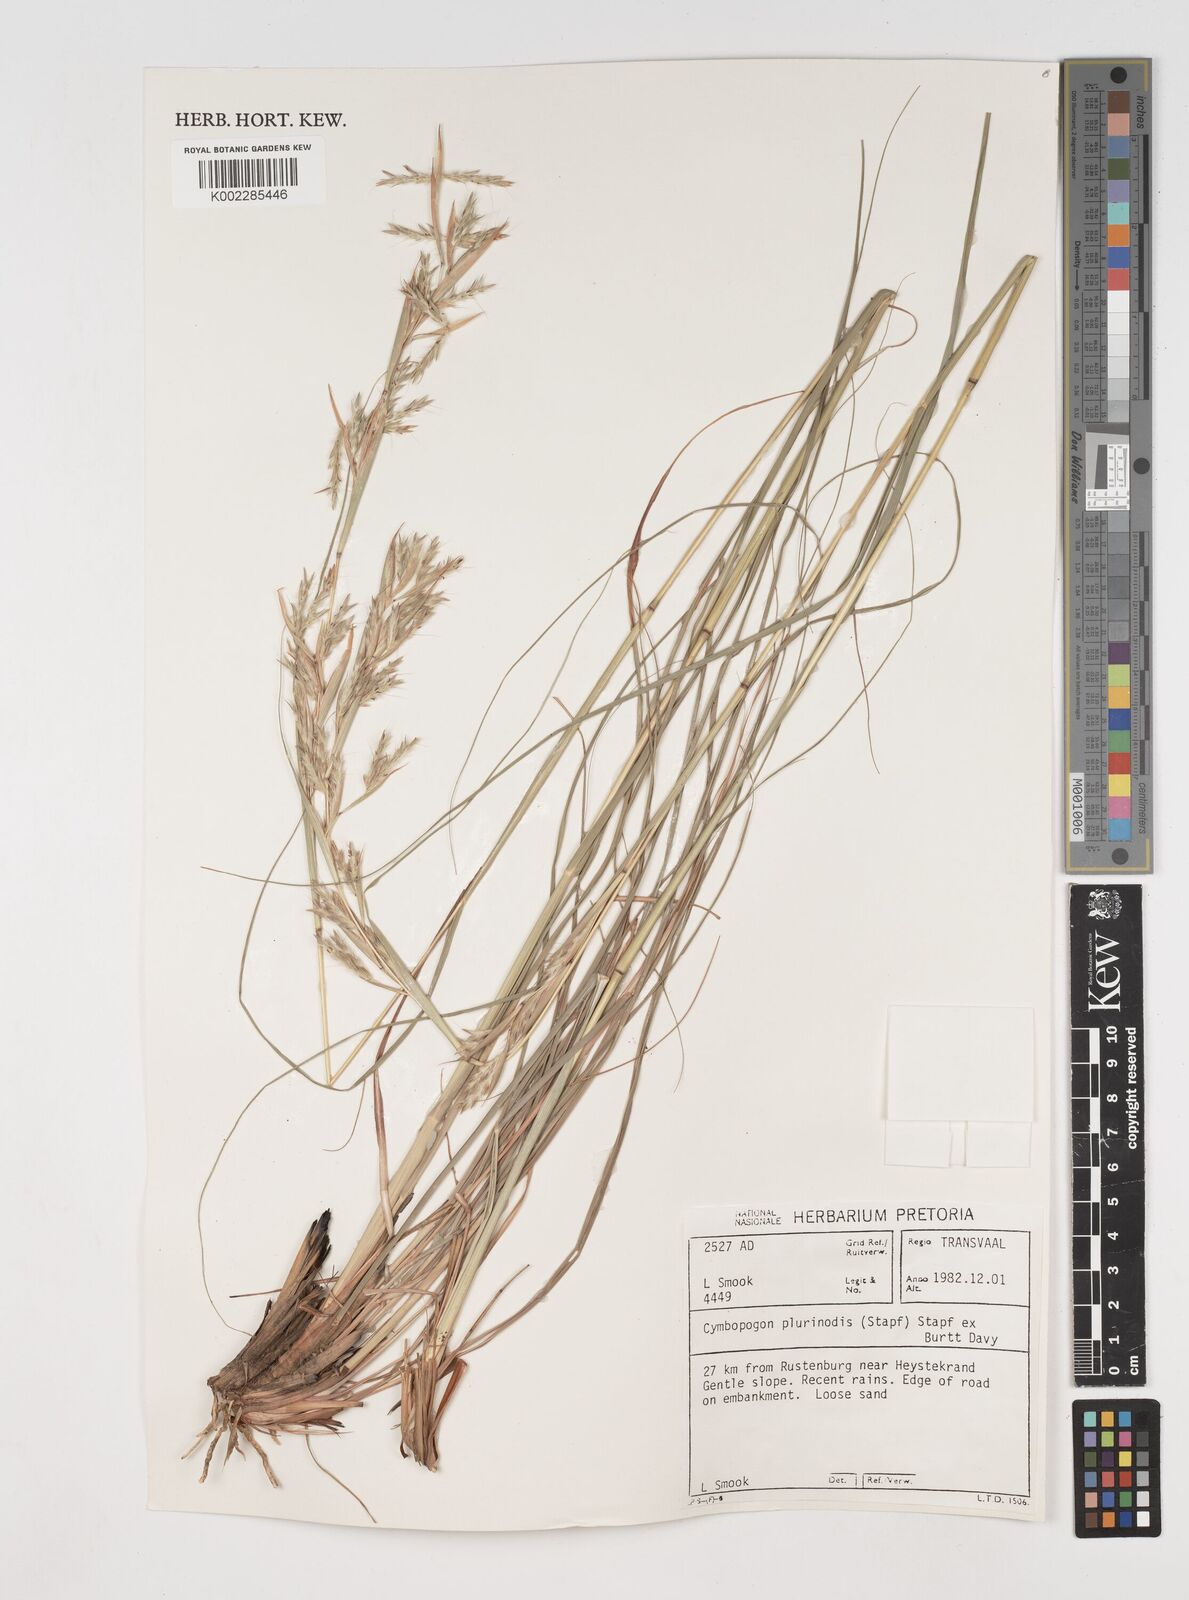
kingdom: Plantae
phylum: Tracheophyta
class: Liliopsida
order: Poales
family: Poaceae
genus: Cymbopogon
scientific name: Cymbopogon pospischilii
